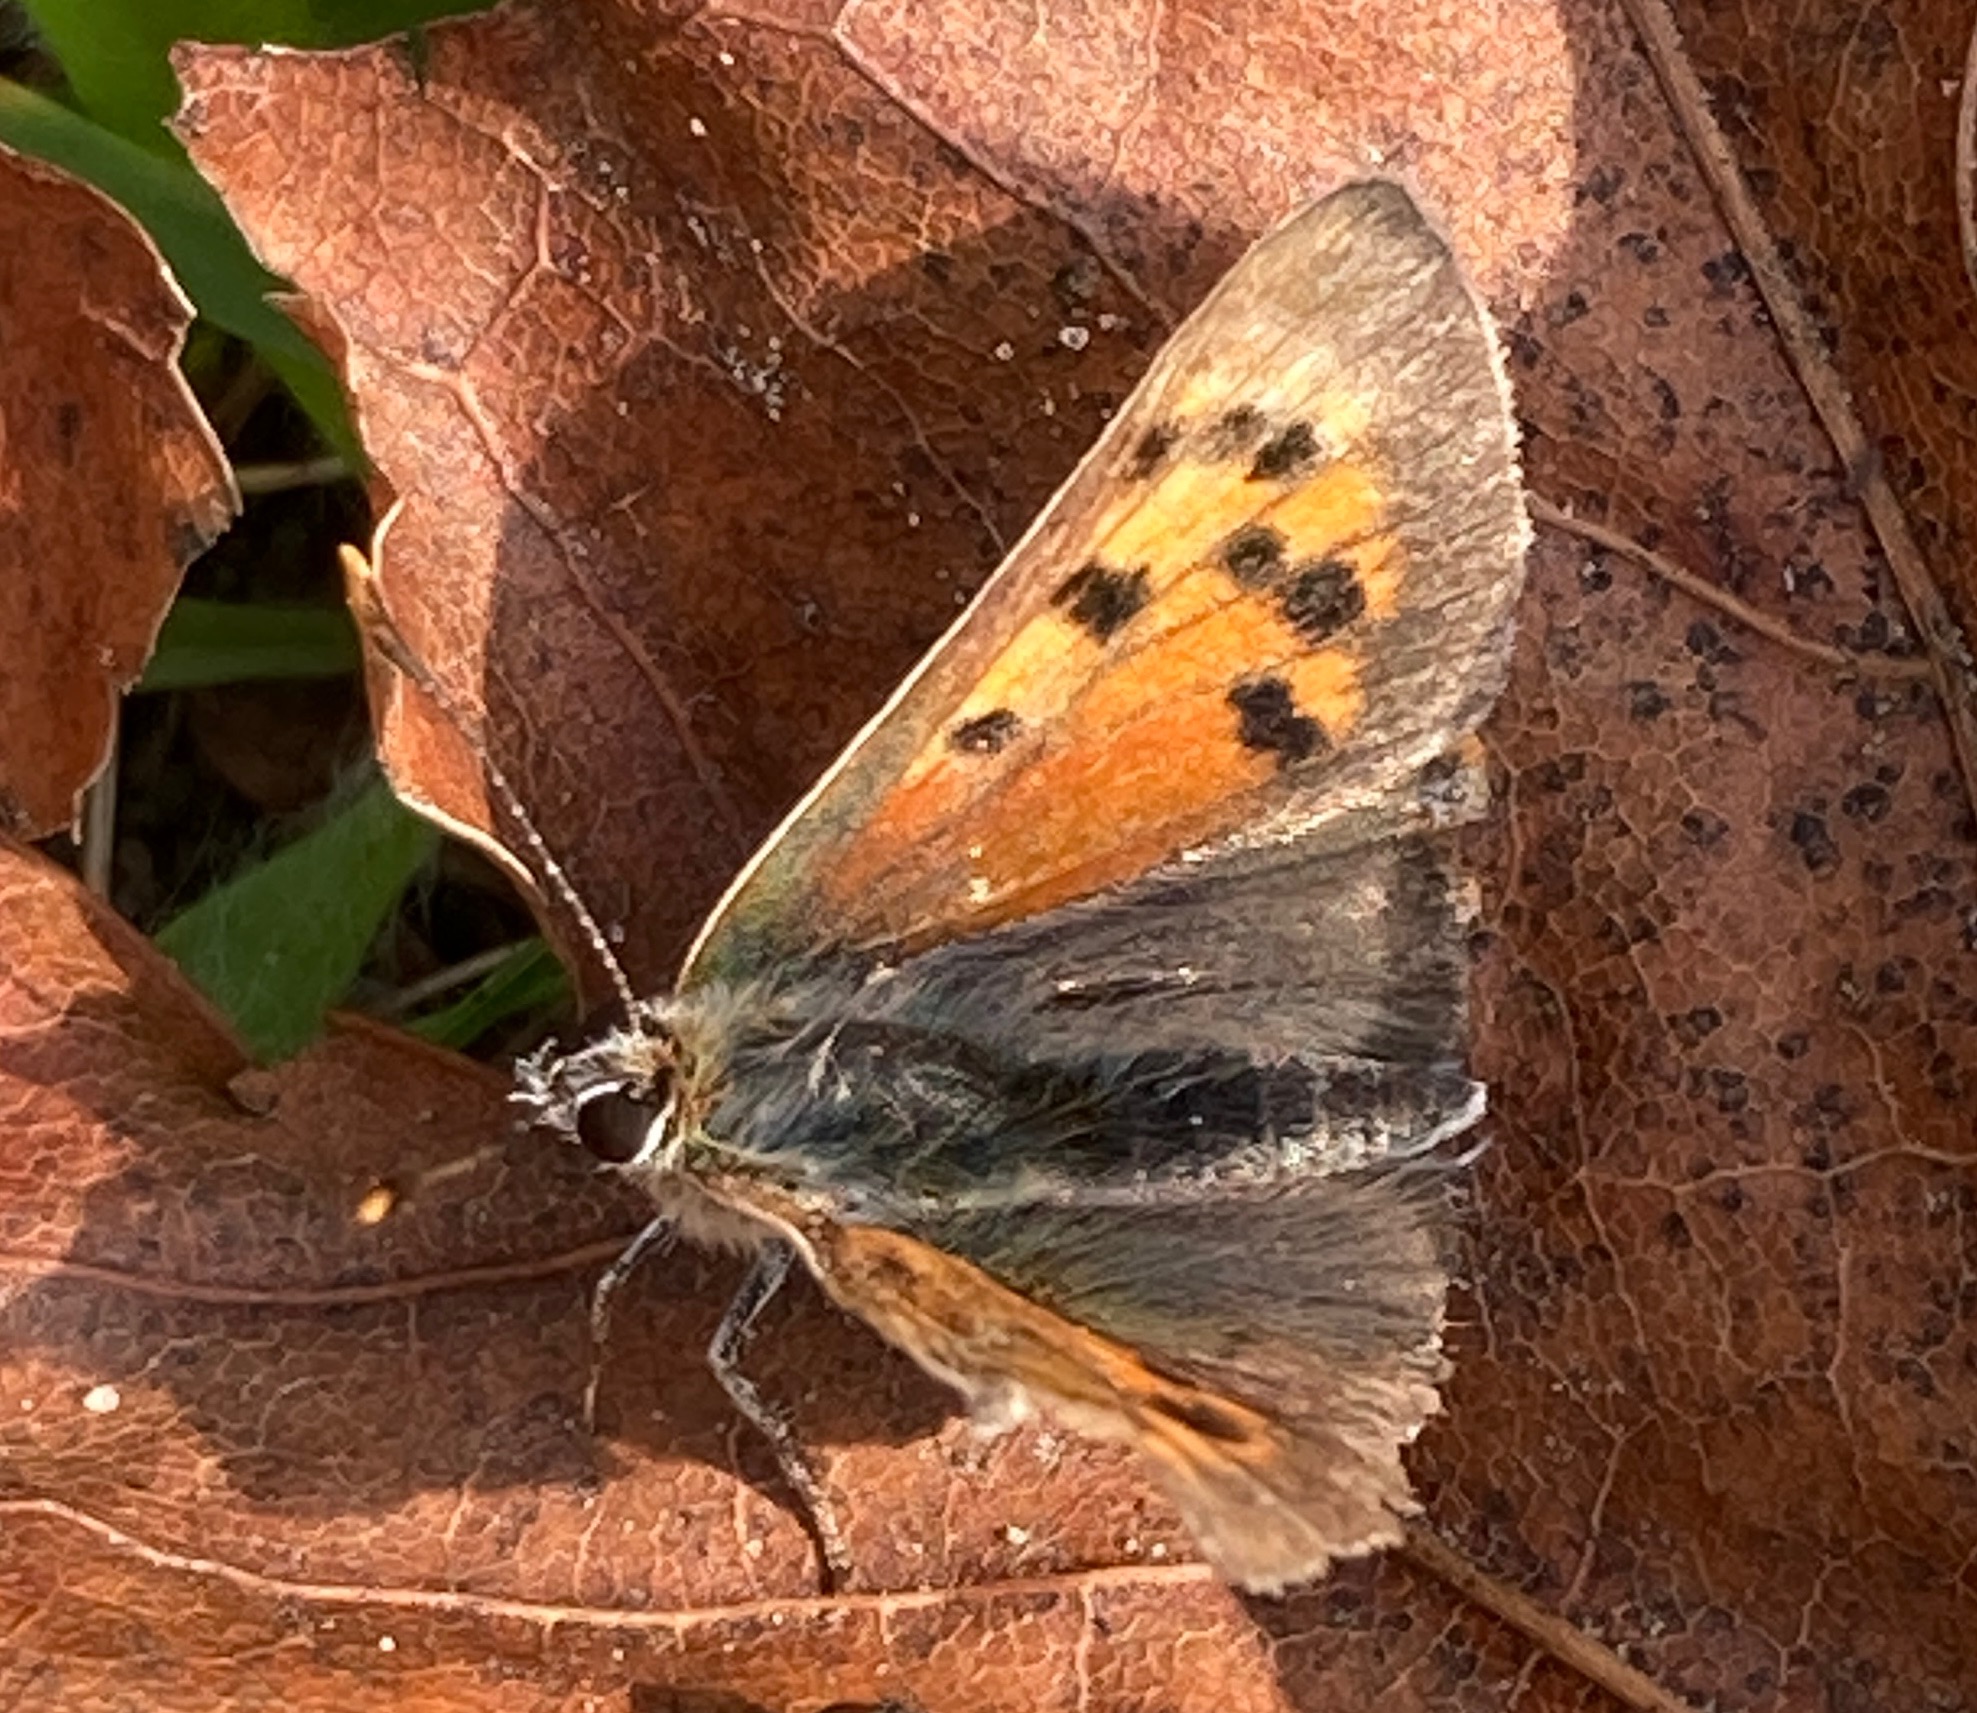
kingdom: Animalia
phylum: Arthropoda
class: Insecta
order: Lepidoptera
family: Lycaenidae
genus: Lycaena
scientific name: Lycaena phlaeas
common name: Lille ildfugl
